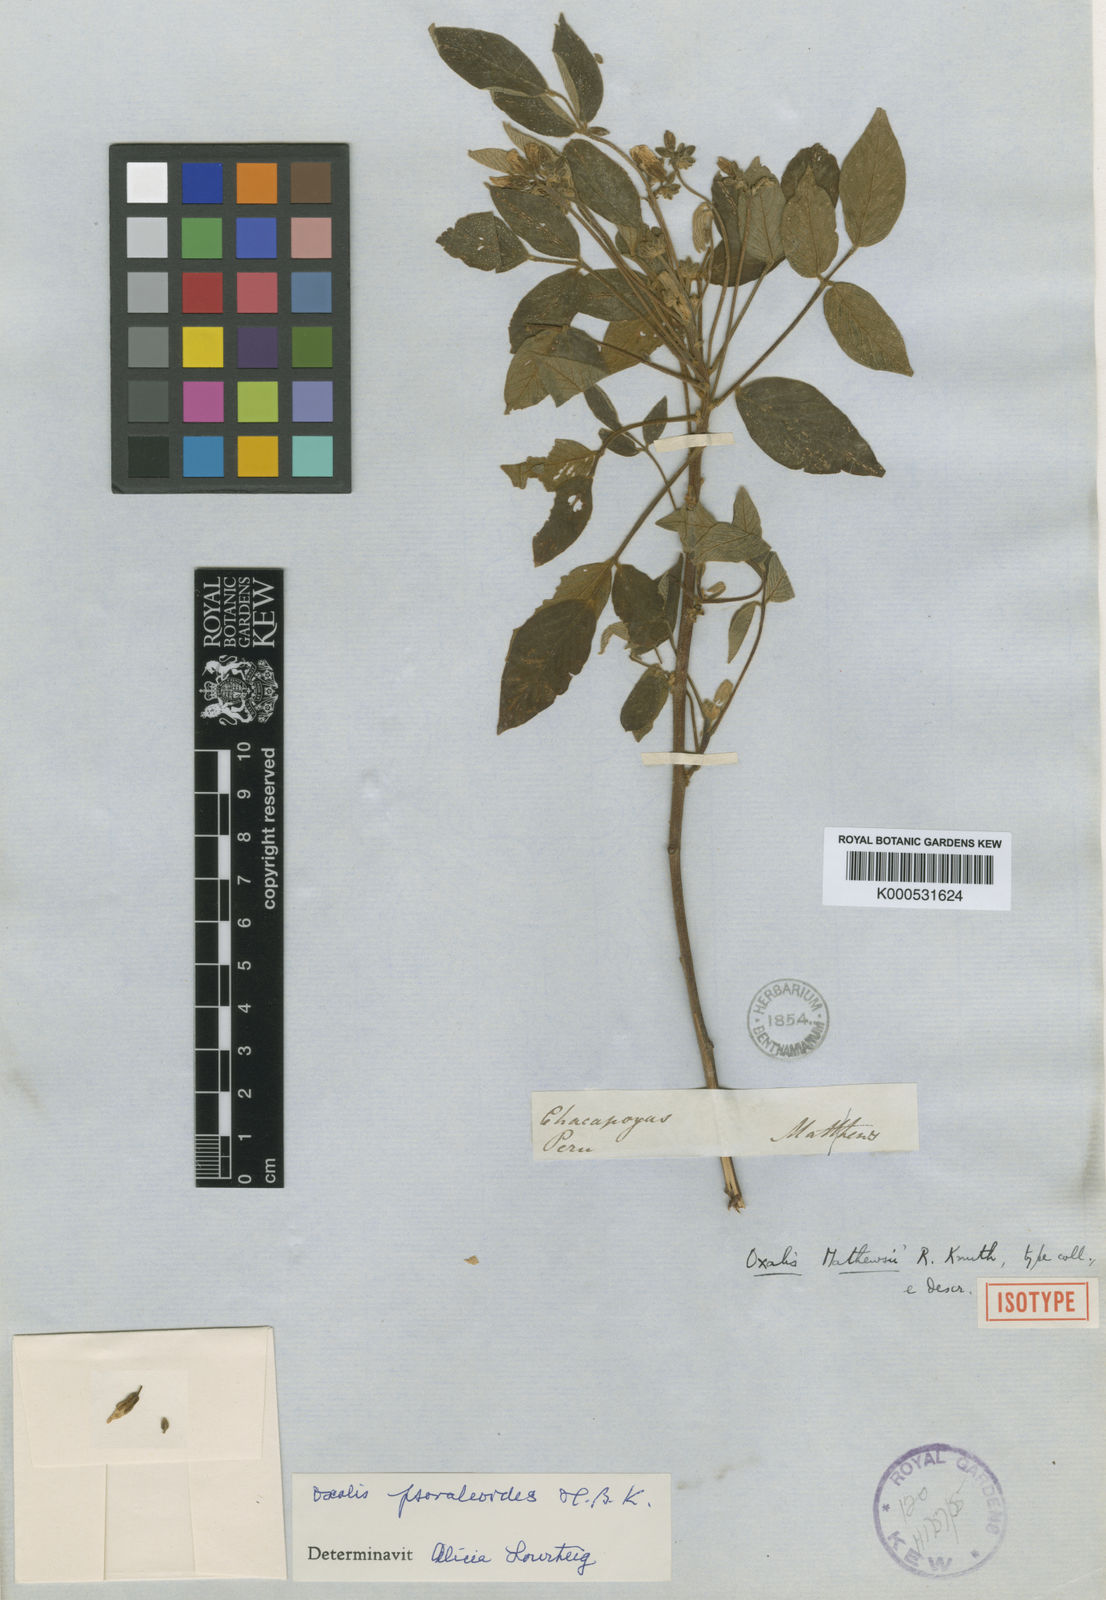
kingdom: Plantae
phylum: Tracheophyta
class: Magnoliopsida
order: Oxalidales
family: Oxalidaceae
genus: Oxalis
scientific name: Oxalis
